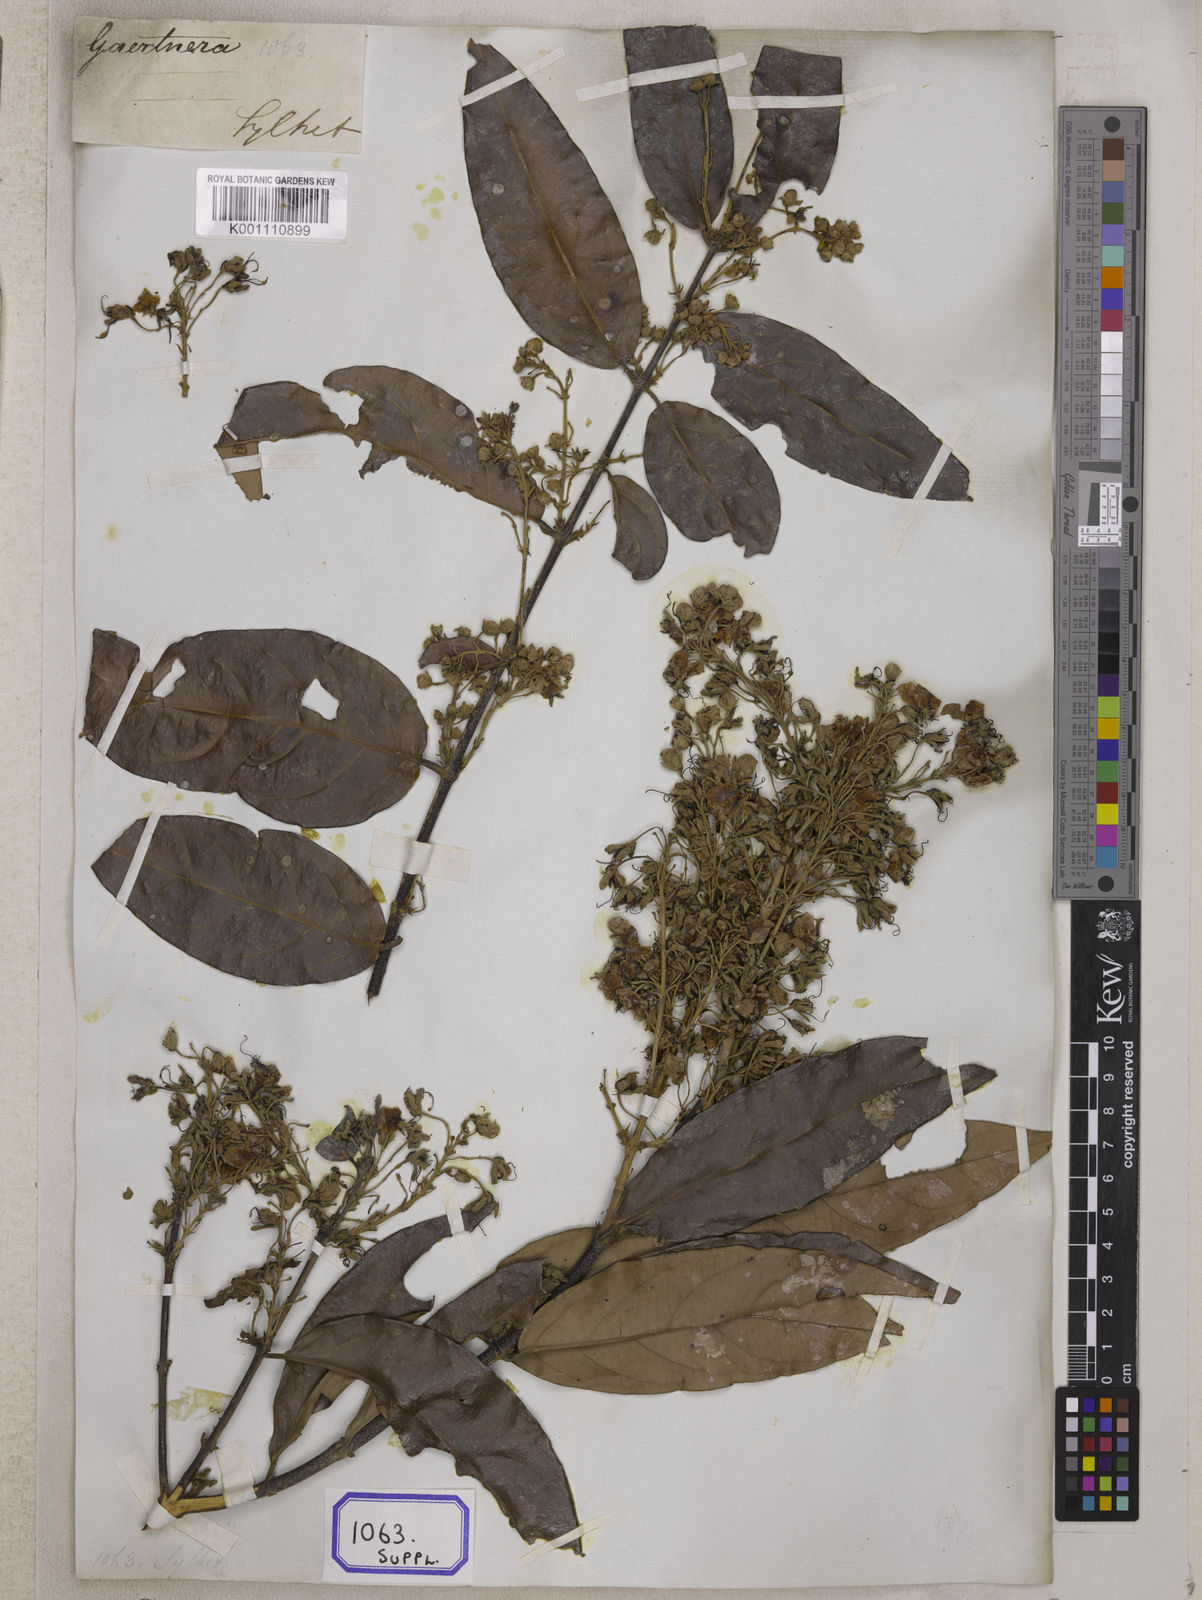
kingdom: Plantae
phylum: Tracheophyta
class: Magnoliopsida
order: Malpighiales
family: Malpighiaceae
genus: Hiptage
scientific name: Hiptage benghalensis
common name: Hiptage
